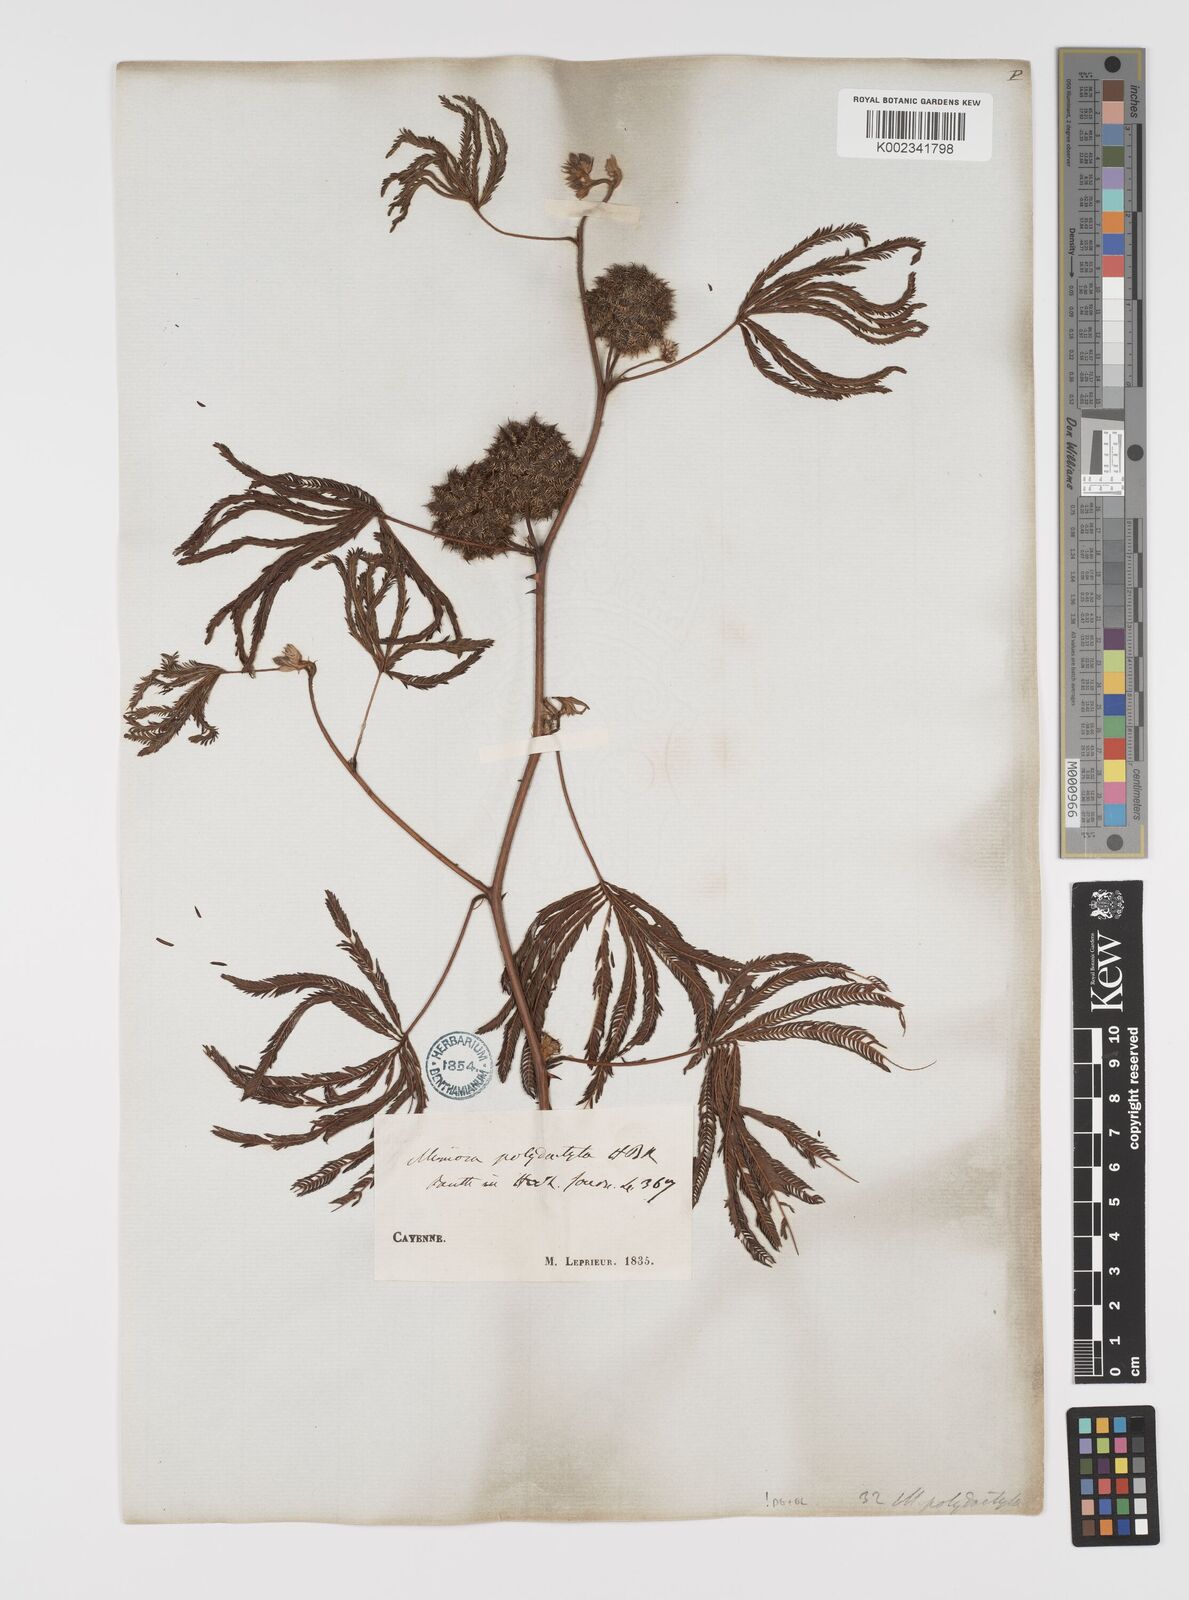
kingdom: Plantae
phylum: Tracheophyta
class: Magnoliopsida
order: Fabales
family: Fabaceae
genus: Mimosa
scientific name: Mimosa polydactyla
